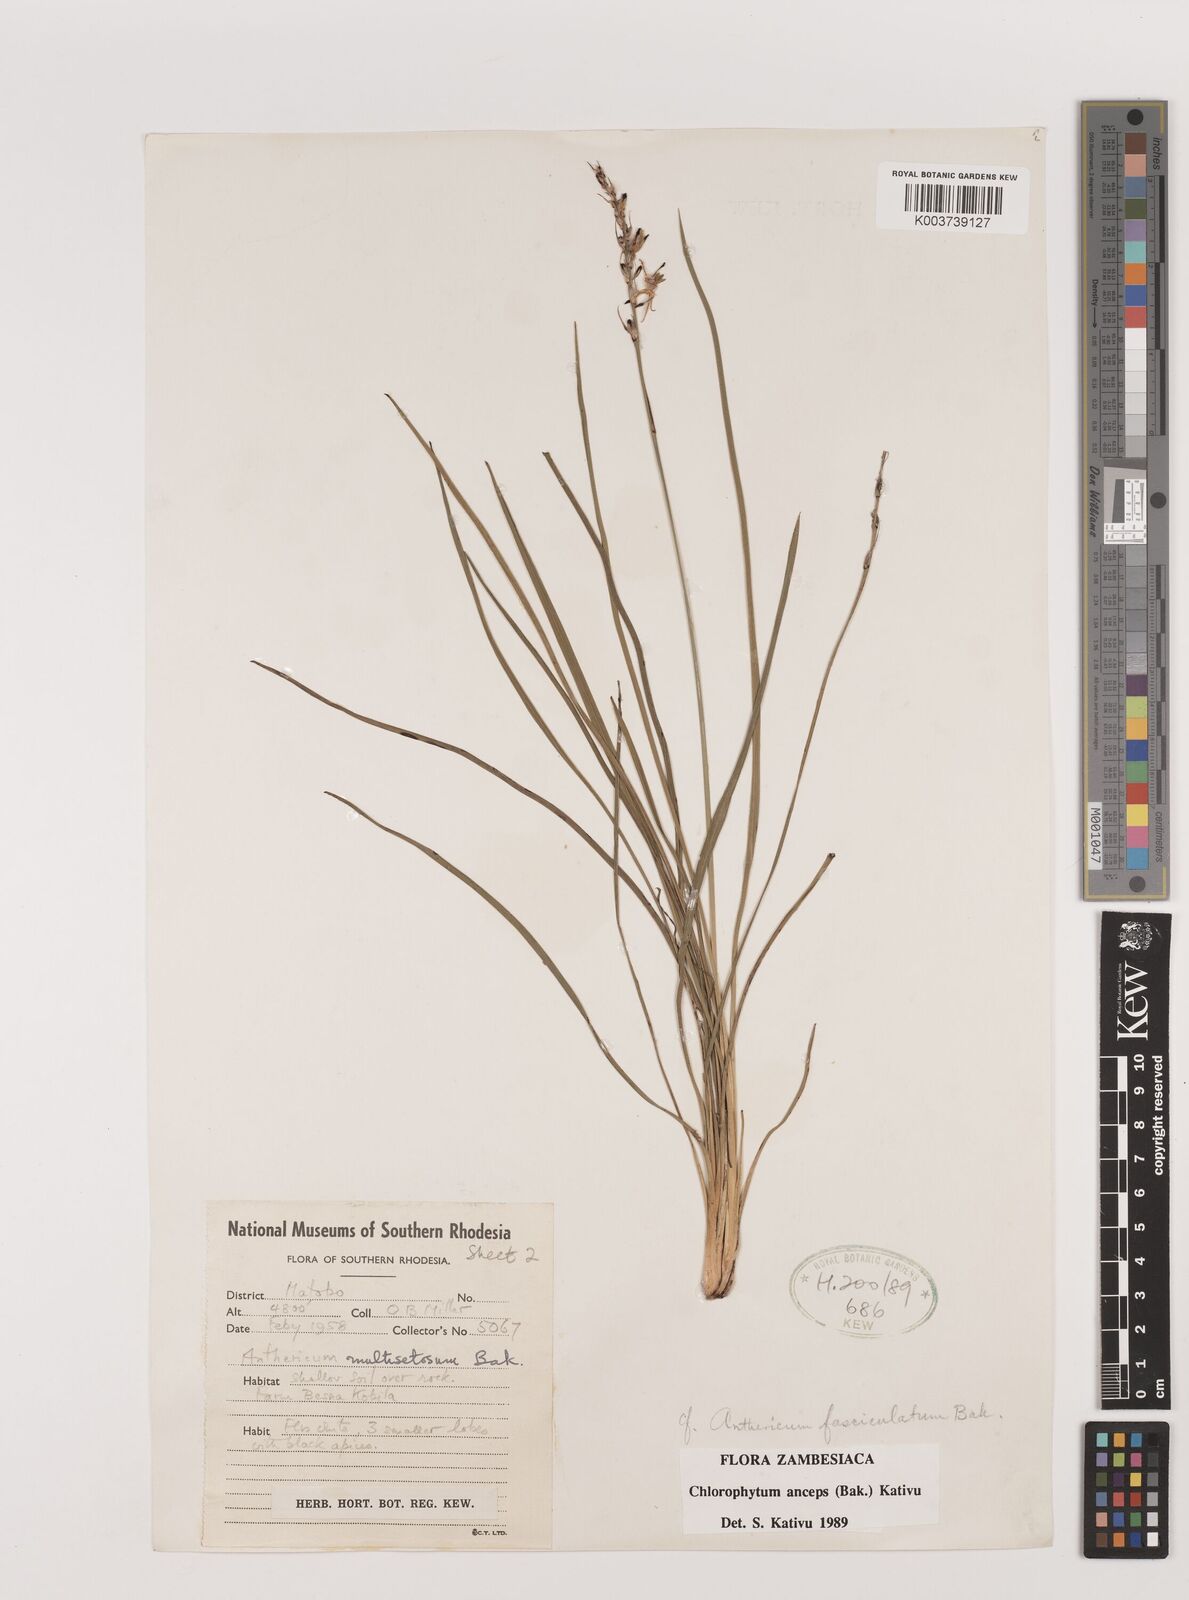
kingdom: Plantae
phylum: Tracheophyta
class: Liliopsida
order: Asparagales
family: Asparagaceae
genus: Chlorophytum
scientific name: Chlorophytum anceps
